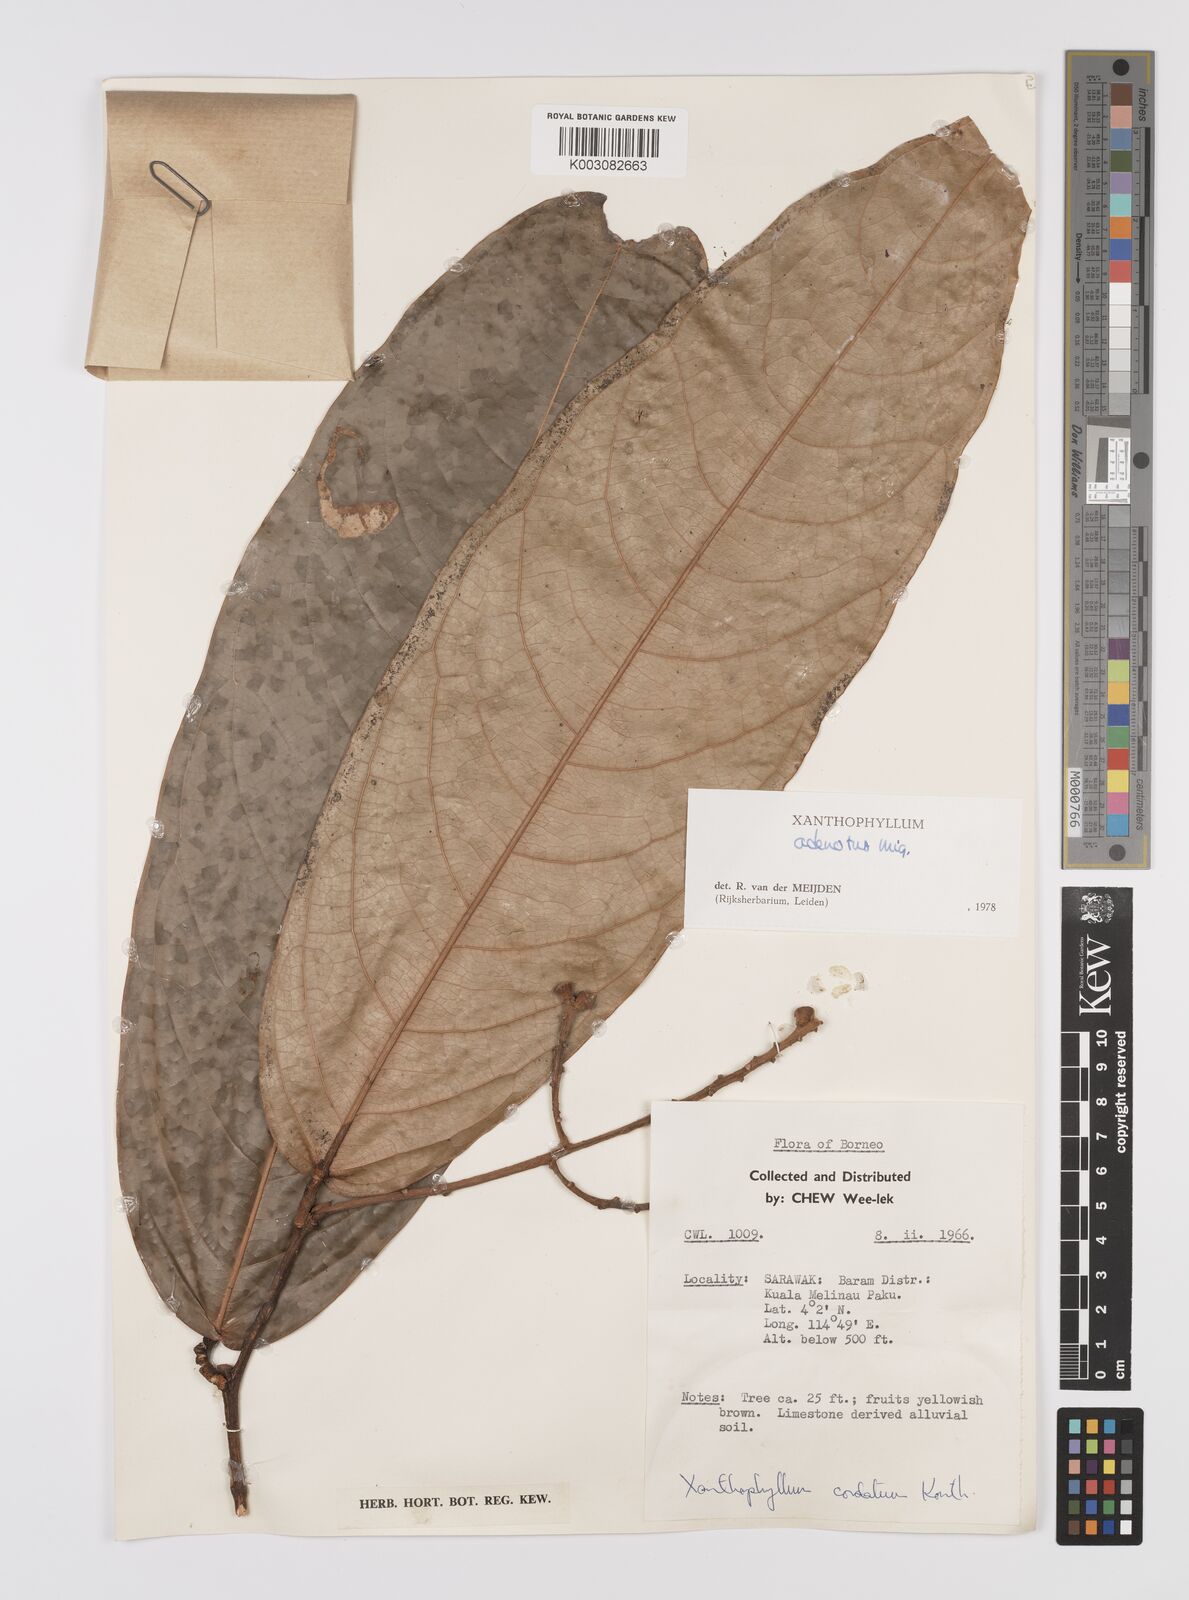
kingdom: Plantae
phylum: Tracheophyta
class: Magnoliopsida
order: Fabales
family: Polygalaceae
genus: Xanthophyllum
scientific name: Xanthophyllum adenotus
